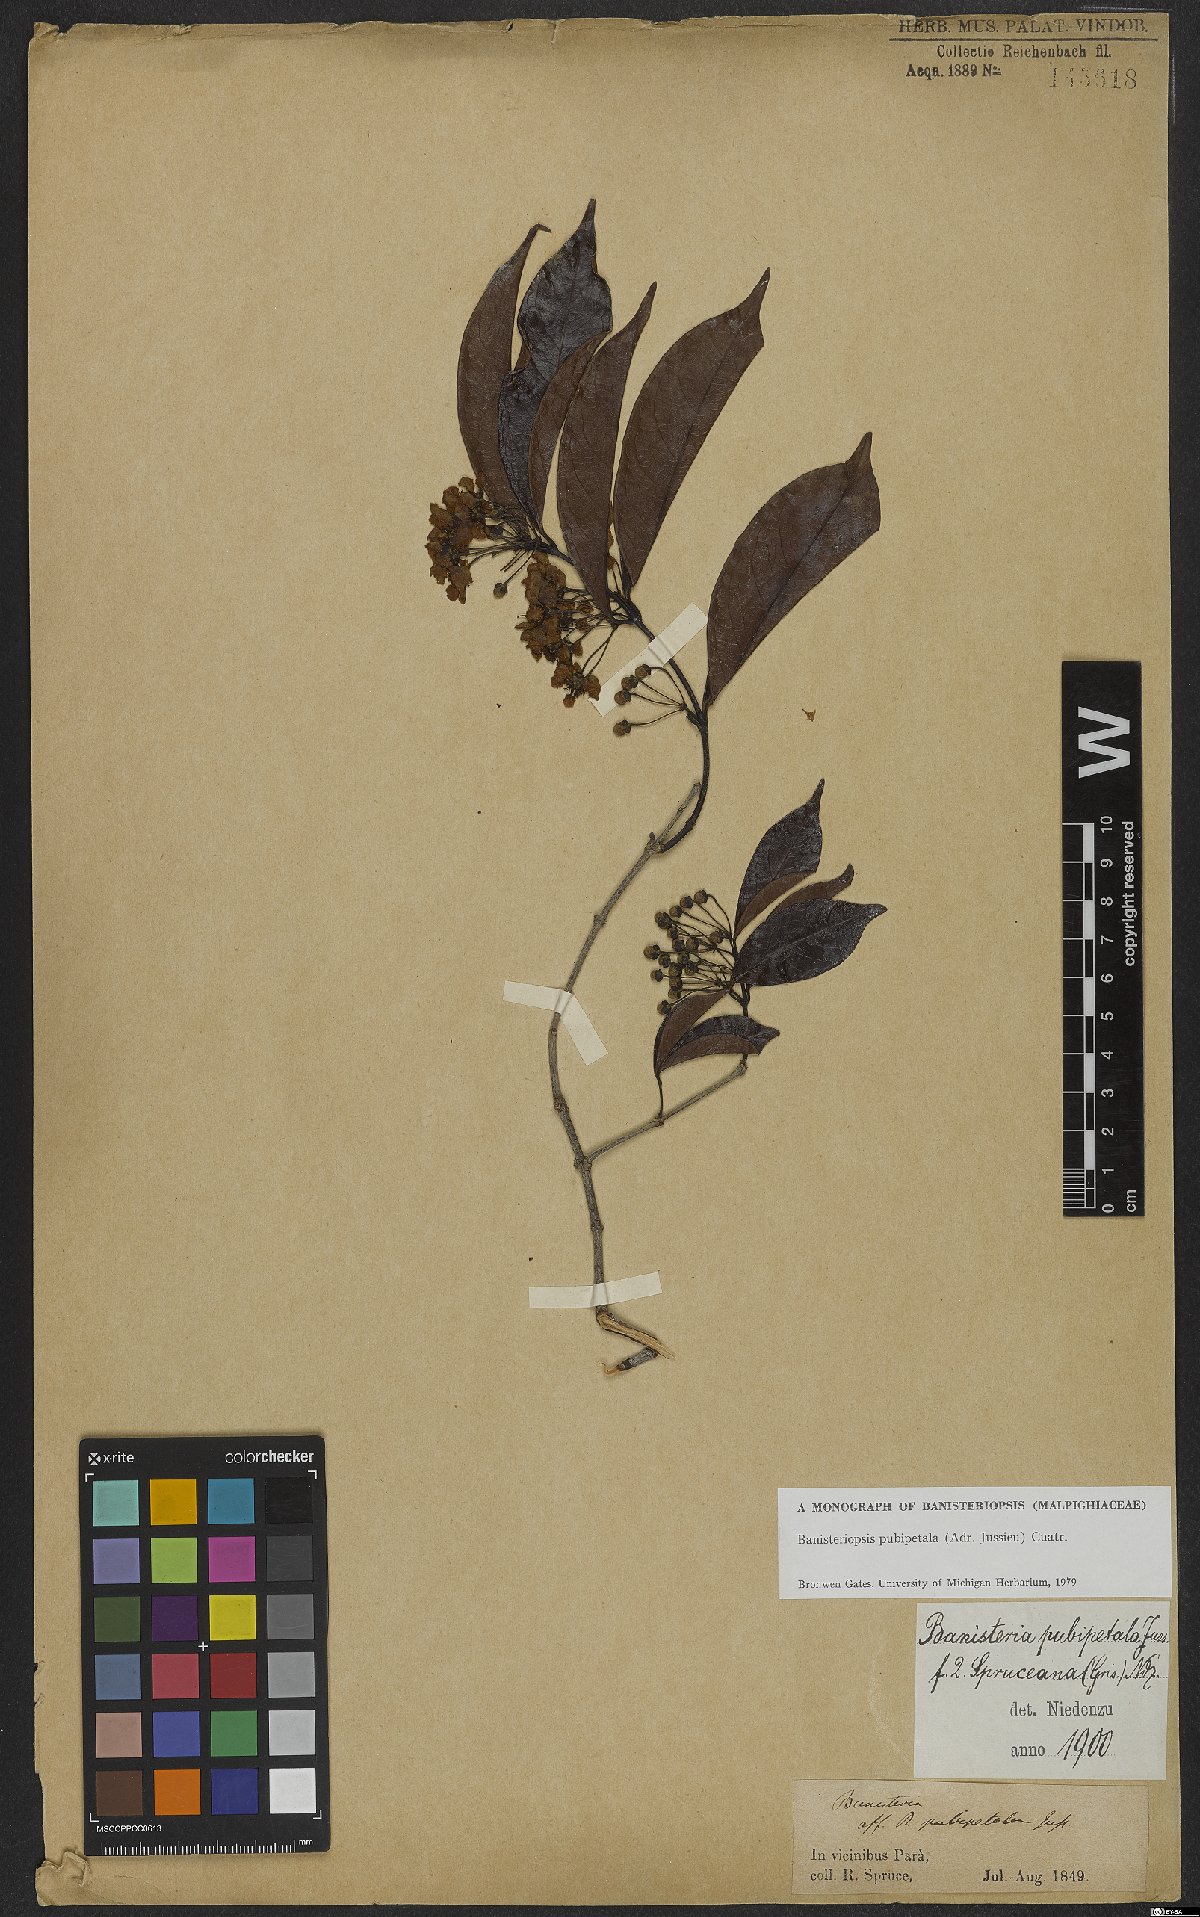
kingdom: Plantae
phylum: Tracheophyta
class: Magnoliopsida
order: Malpighiales
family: Malpighiaceae
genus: Diplopterys
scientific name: Diplopterys pubipetala
